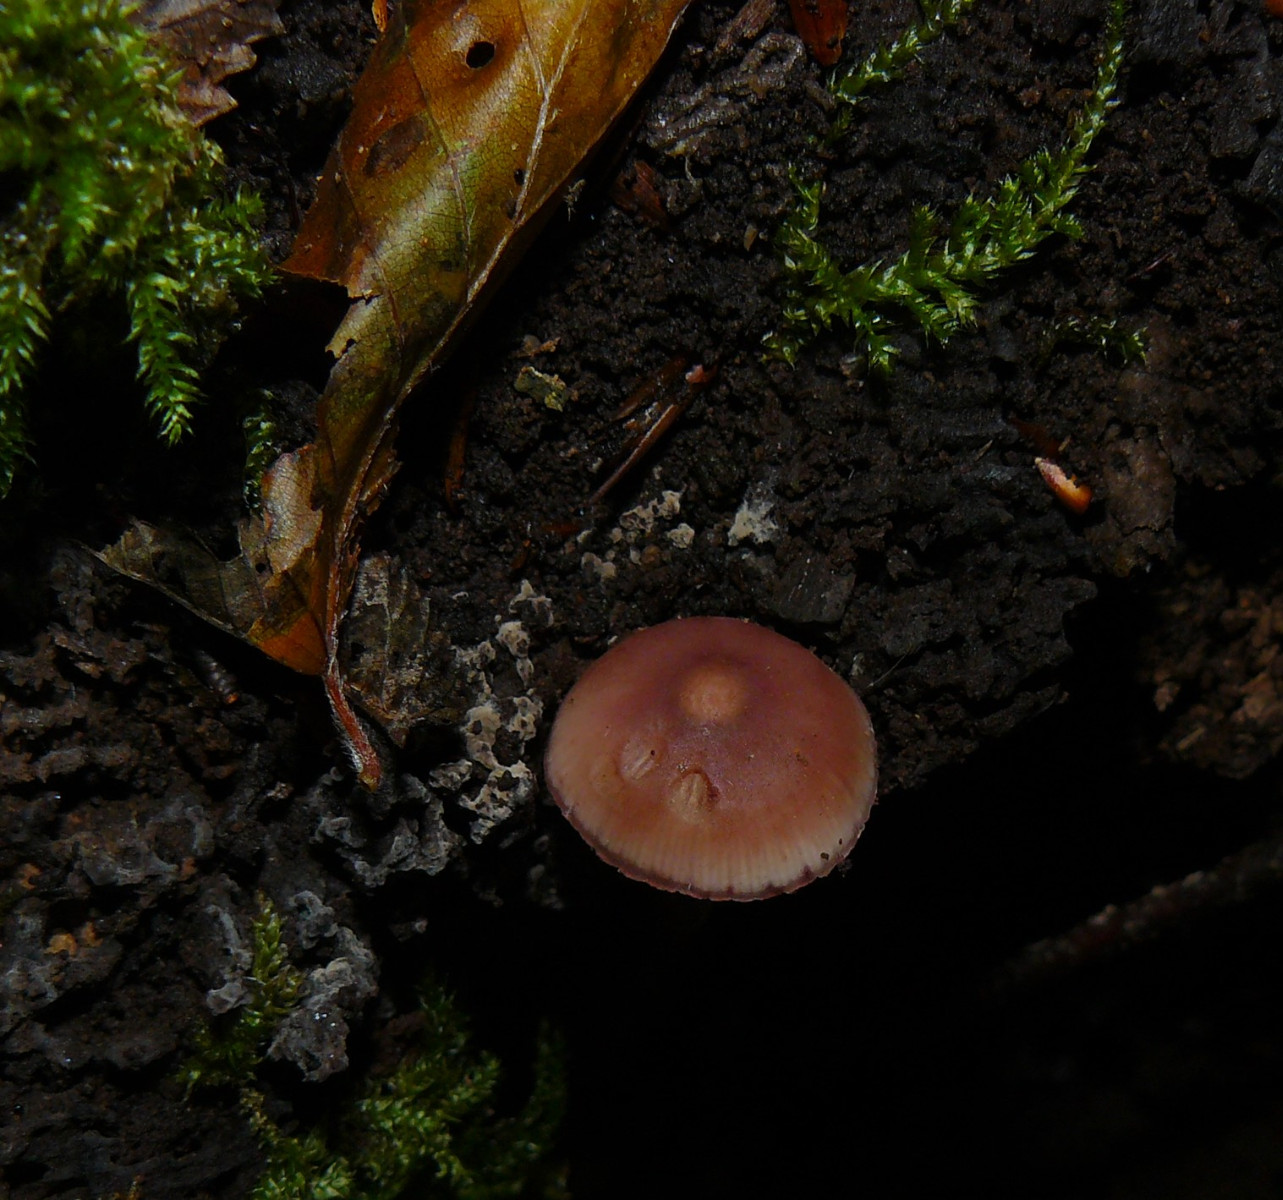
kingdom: Fungi
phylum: Basidiomycota
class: Agaricomycetes
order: Agaricales
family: Mycenaceae
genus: Mycena
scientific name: Mycena haematopus
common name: blødende huesvamp
